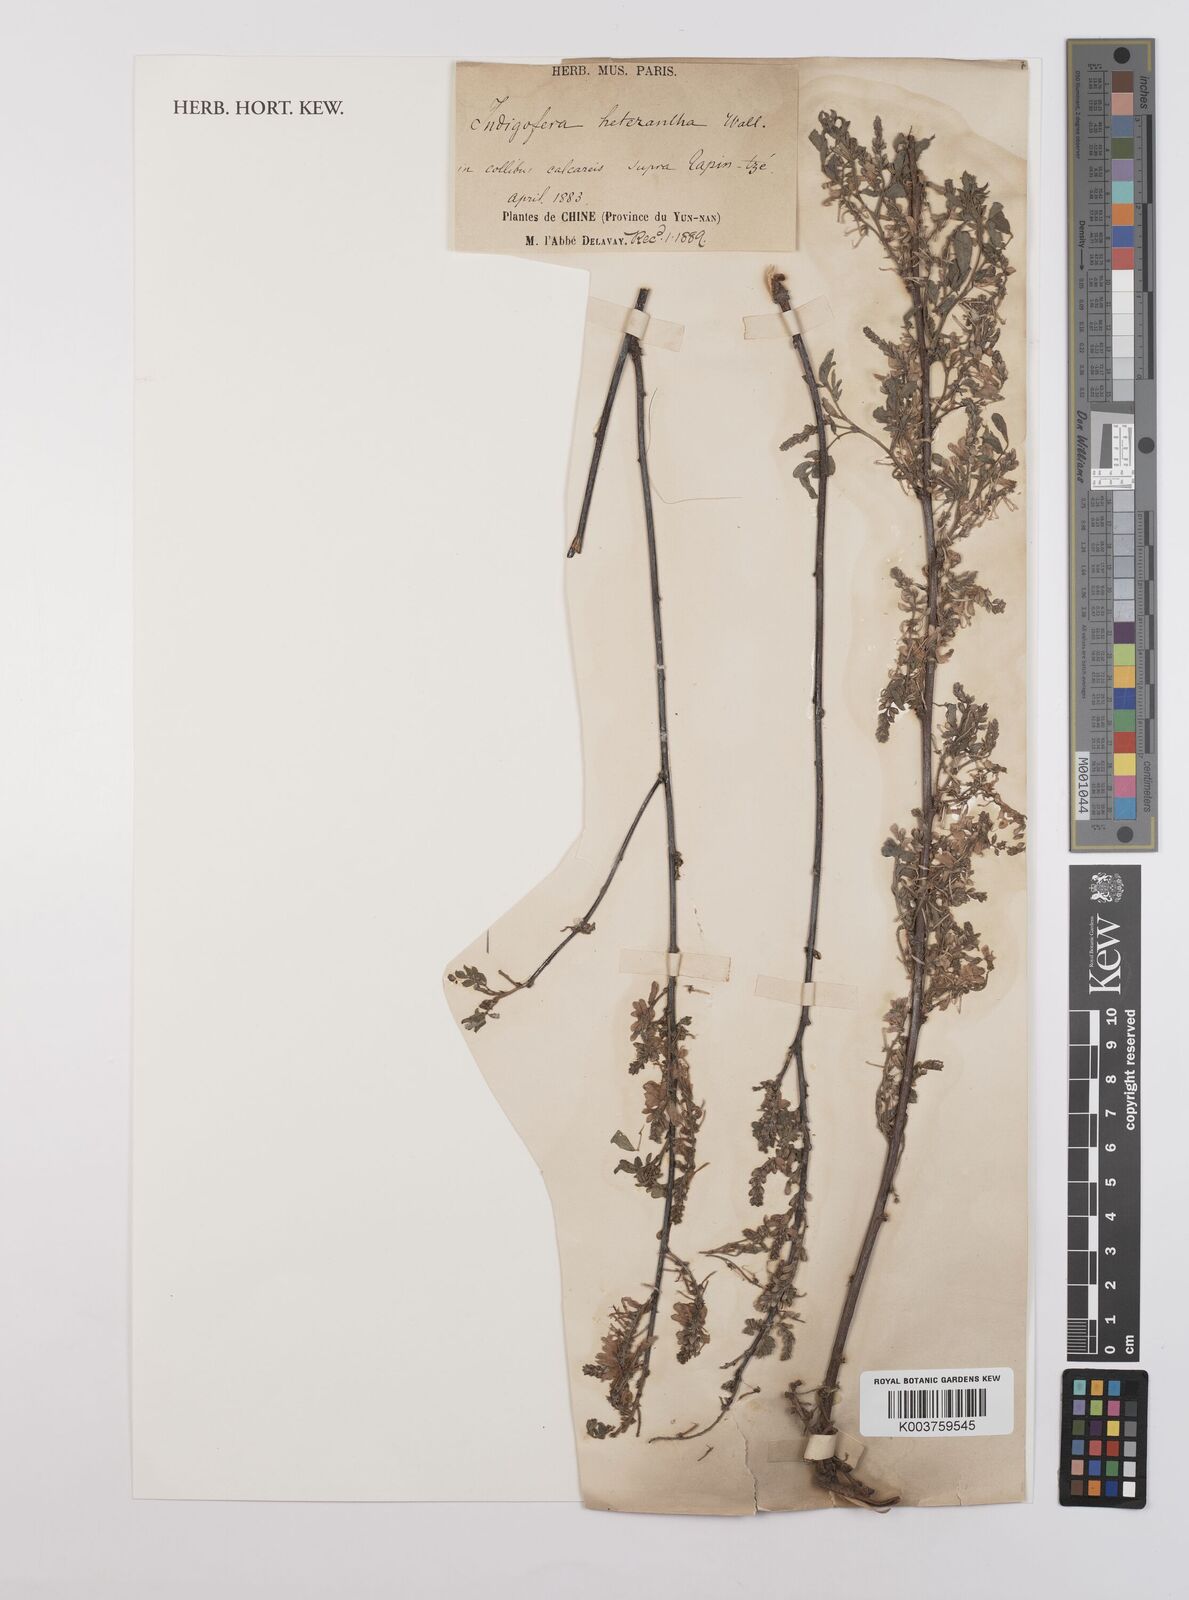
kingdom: Plantae
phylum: Tracheophyta
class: Magnoliopsida
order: Fabales
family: Fabaceae
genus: Indigofera
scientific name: Indigofera heterantha
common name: Himalayan indigo
